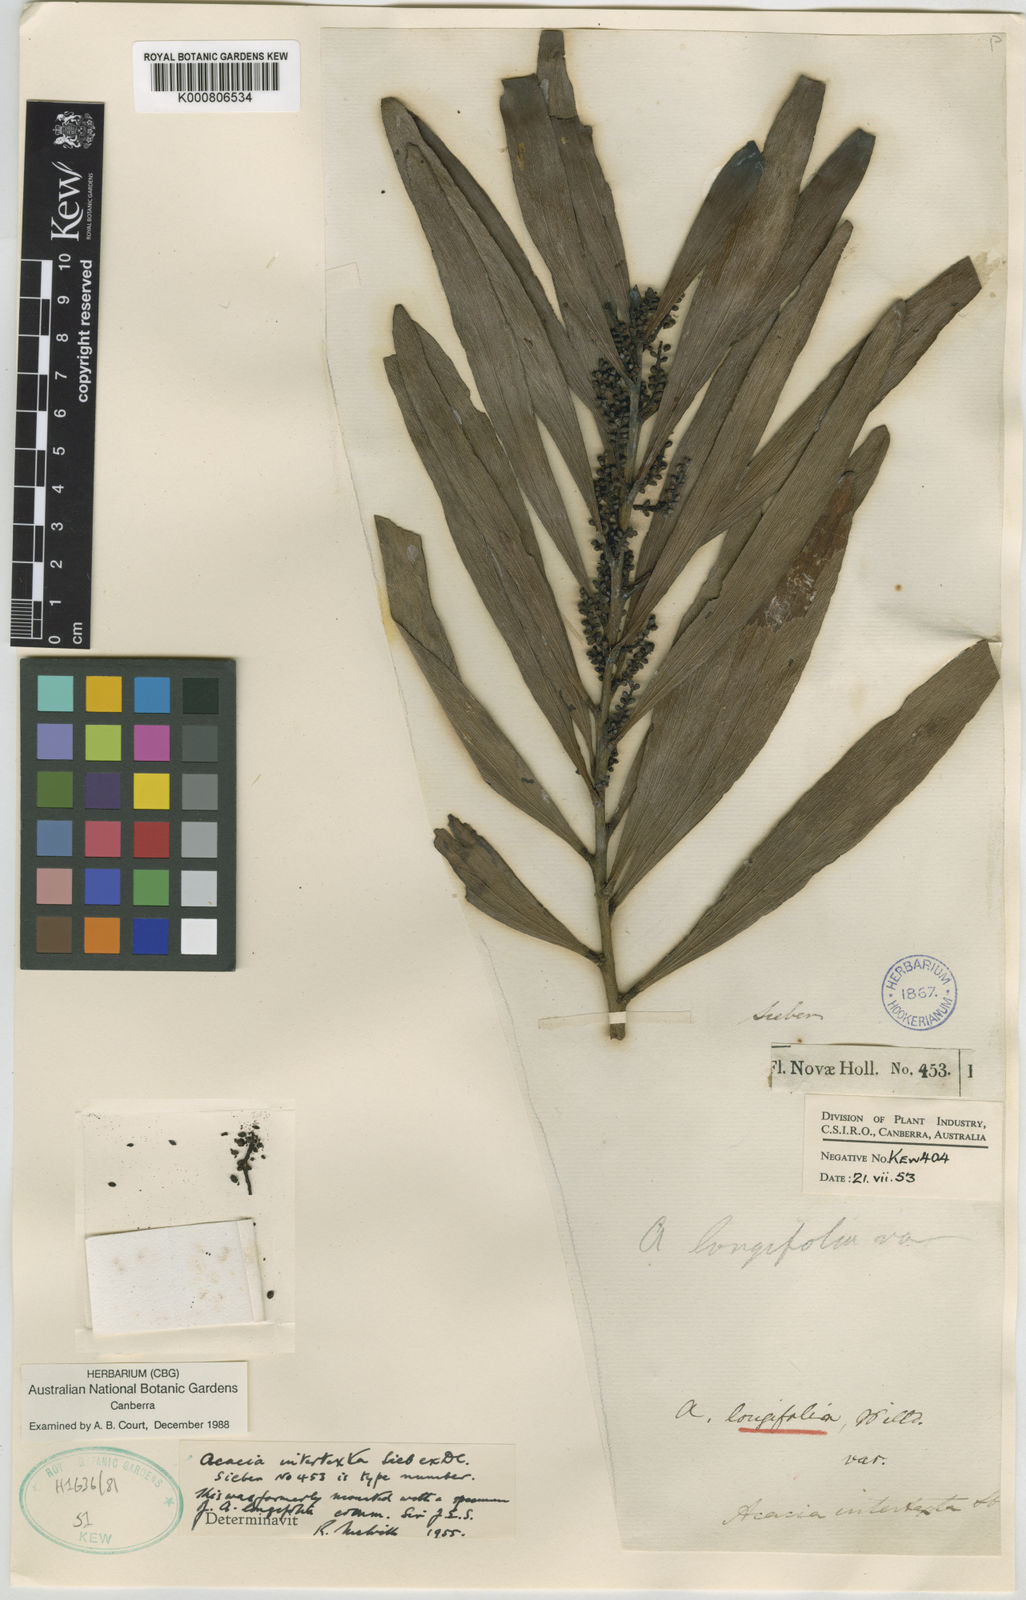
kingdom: Plantae
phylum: Tracheophyta
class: Magnoliopsida
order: Fabales
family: Fabaceae
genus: Acacia
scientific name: Acacia obtusifolia
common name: Stiff-leaf wattle
